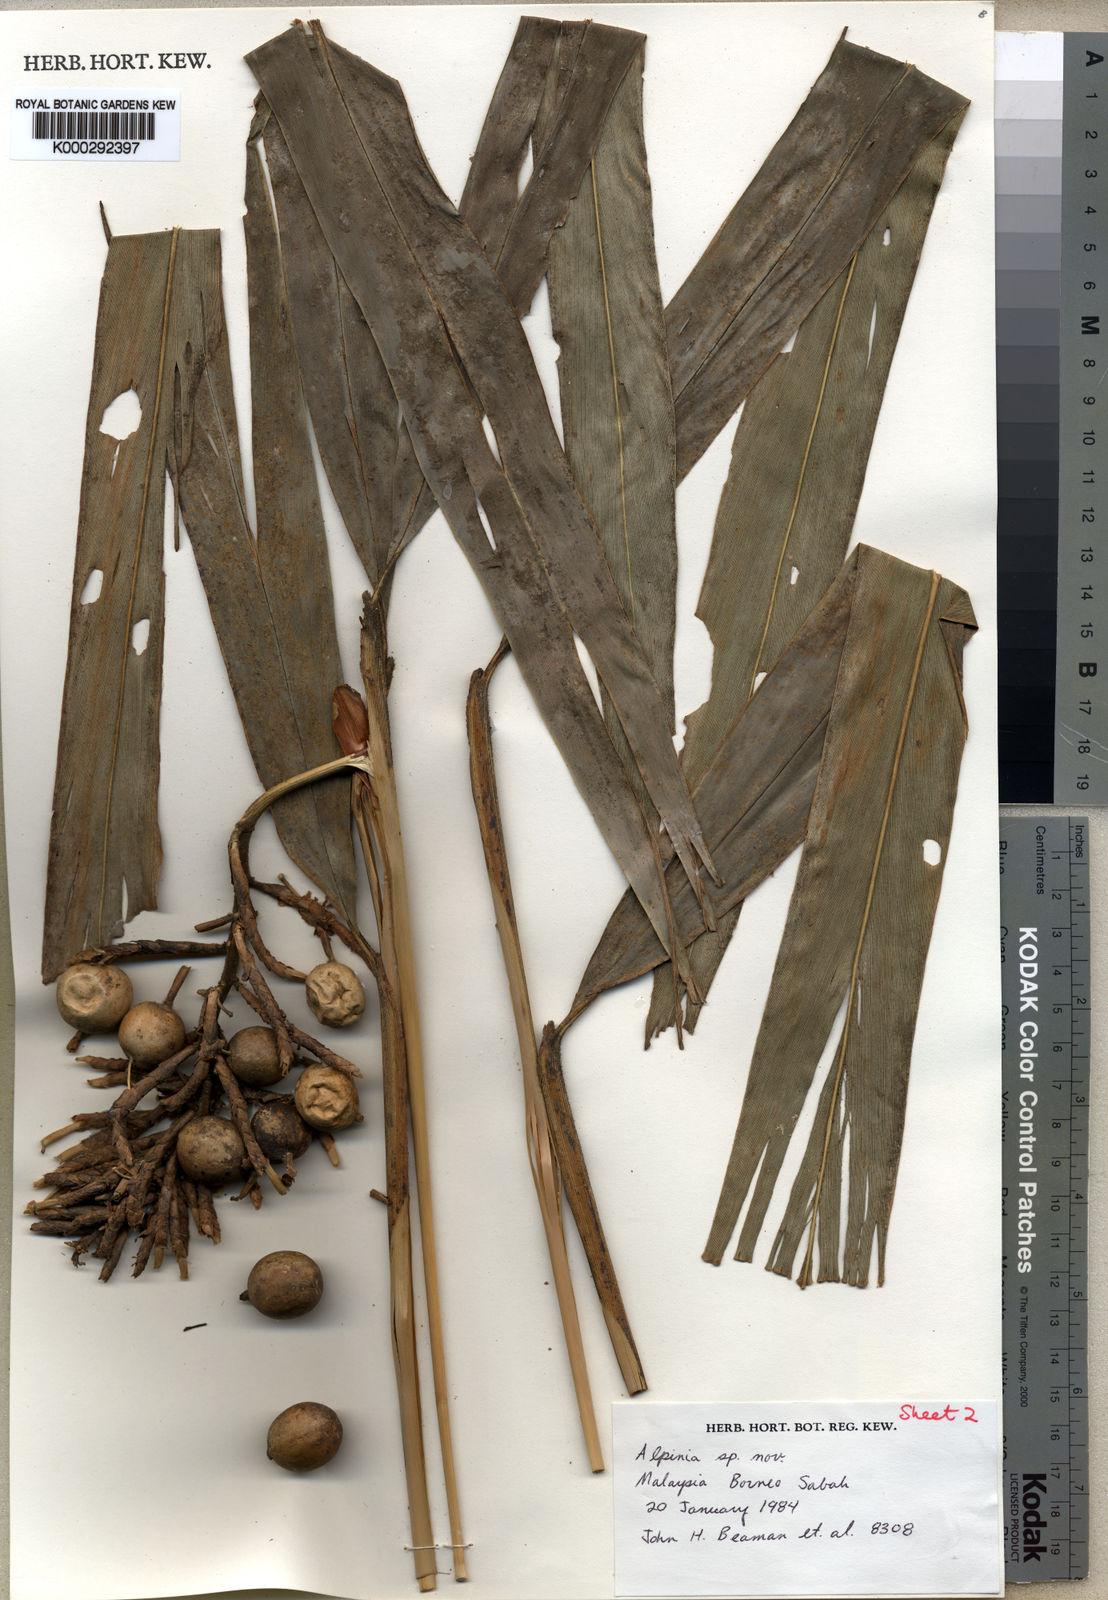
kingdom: Plantae
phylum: Tracheophyta
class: Liliopsida
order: Zingiberales
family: Zingiberaceae
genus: Alpinia
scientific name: Alpinia beamanii
